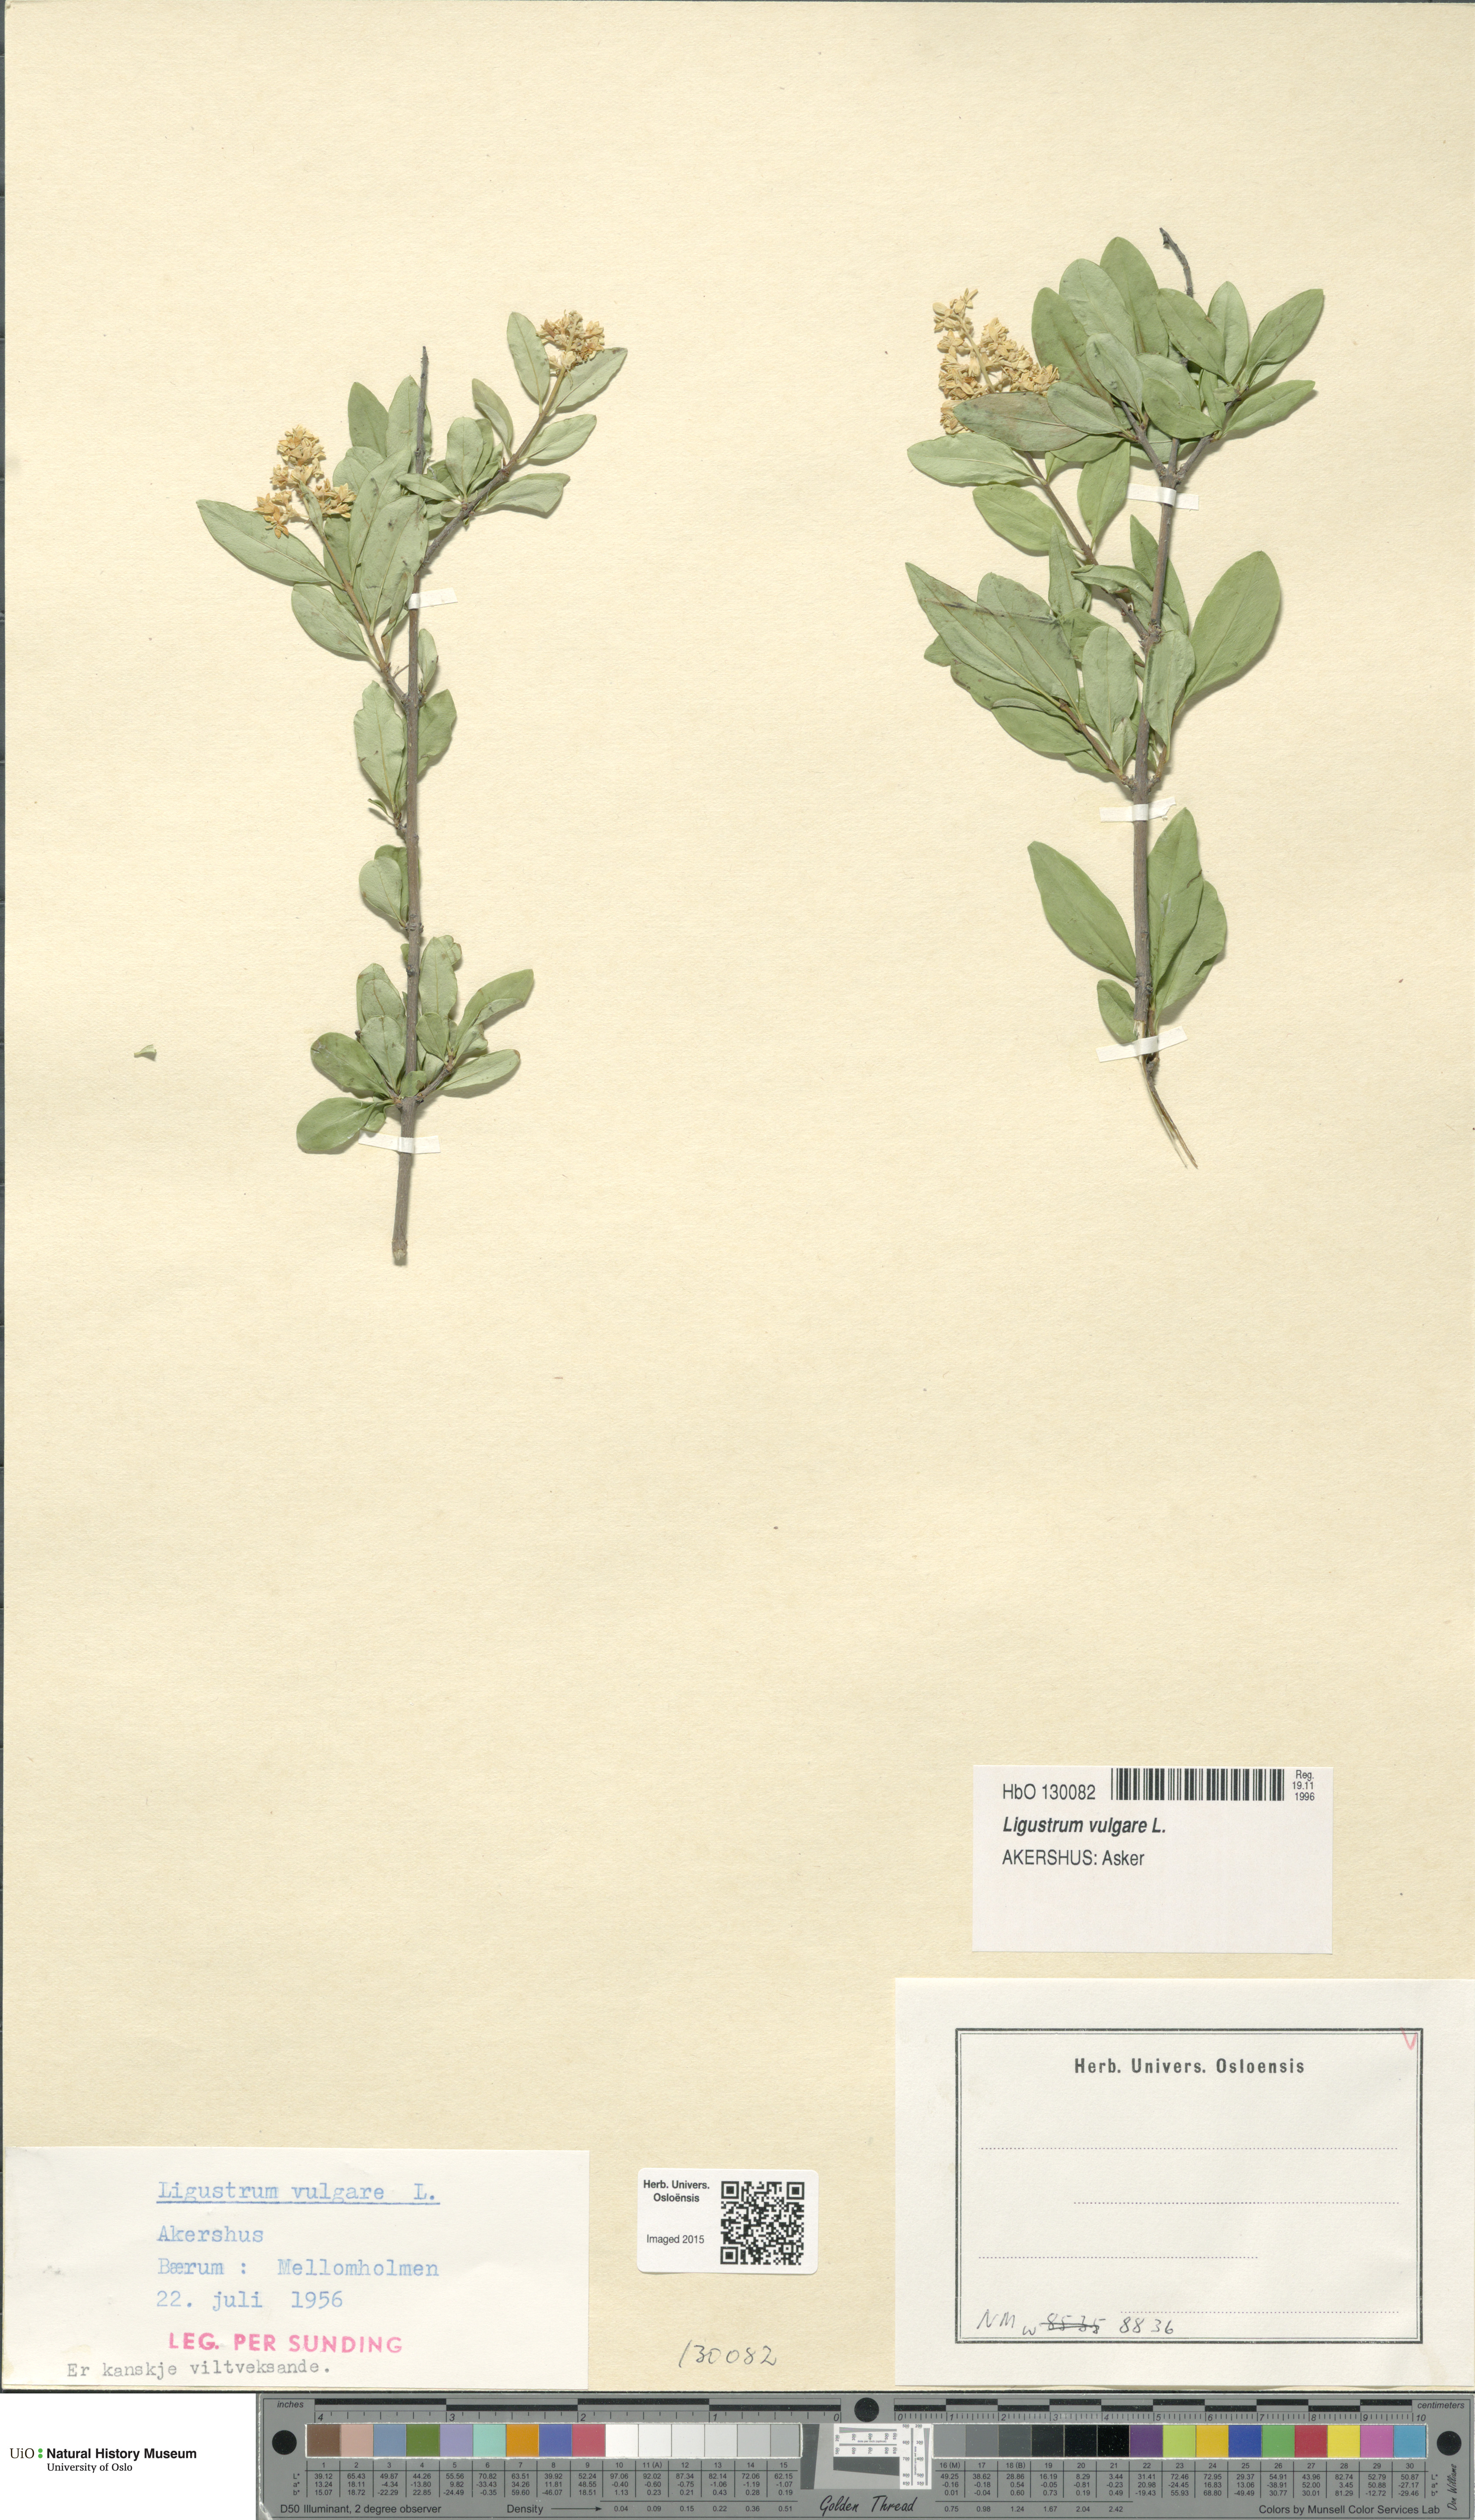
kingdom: Plantae
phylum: Tracheophyta
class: Magnoliopsida
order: Lamiales
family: Oleaceae
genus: Ligustrum
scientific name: Ligustrum vulgare
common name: Wild privet
